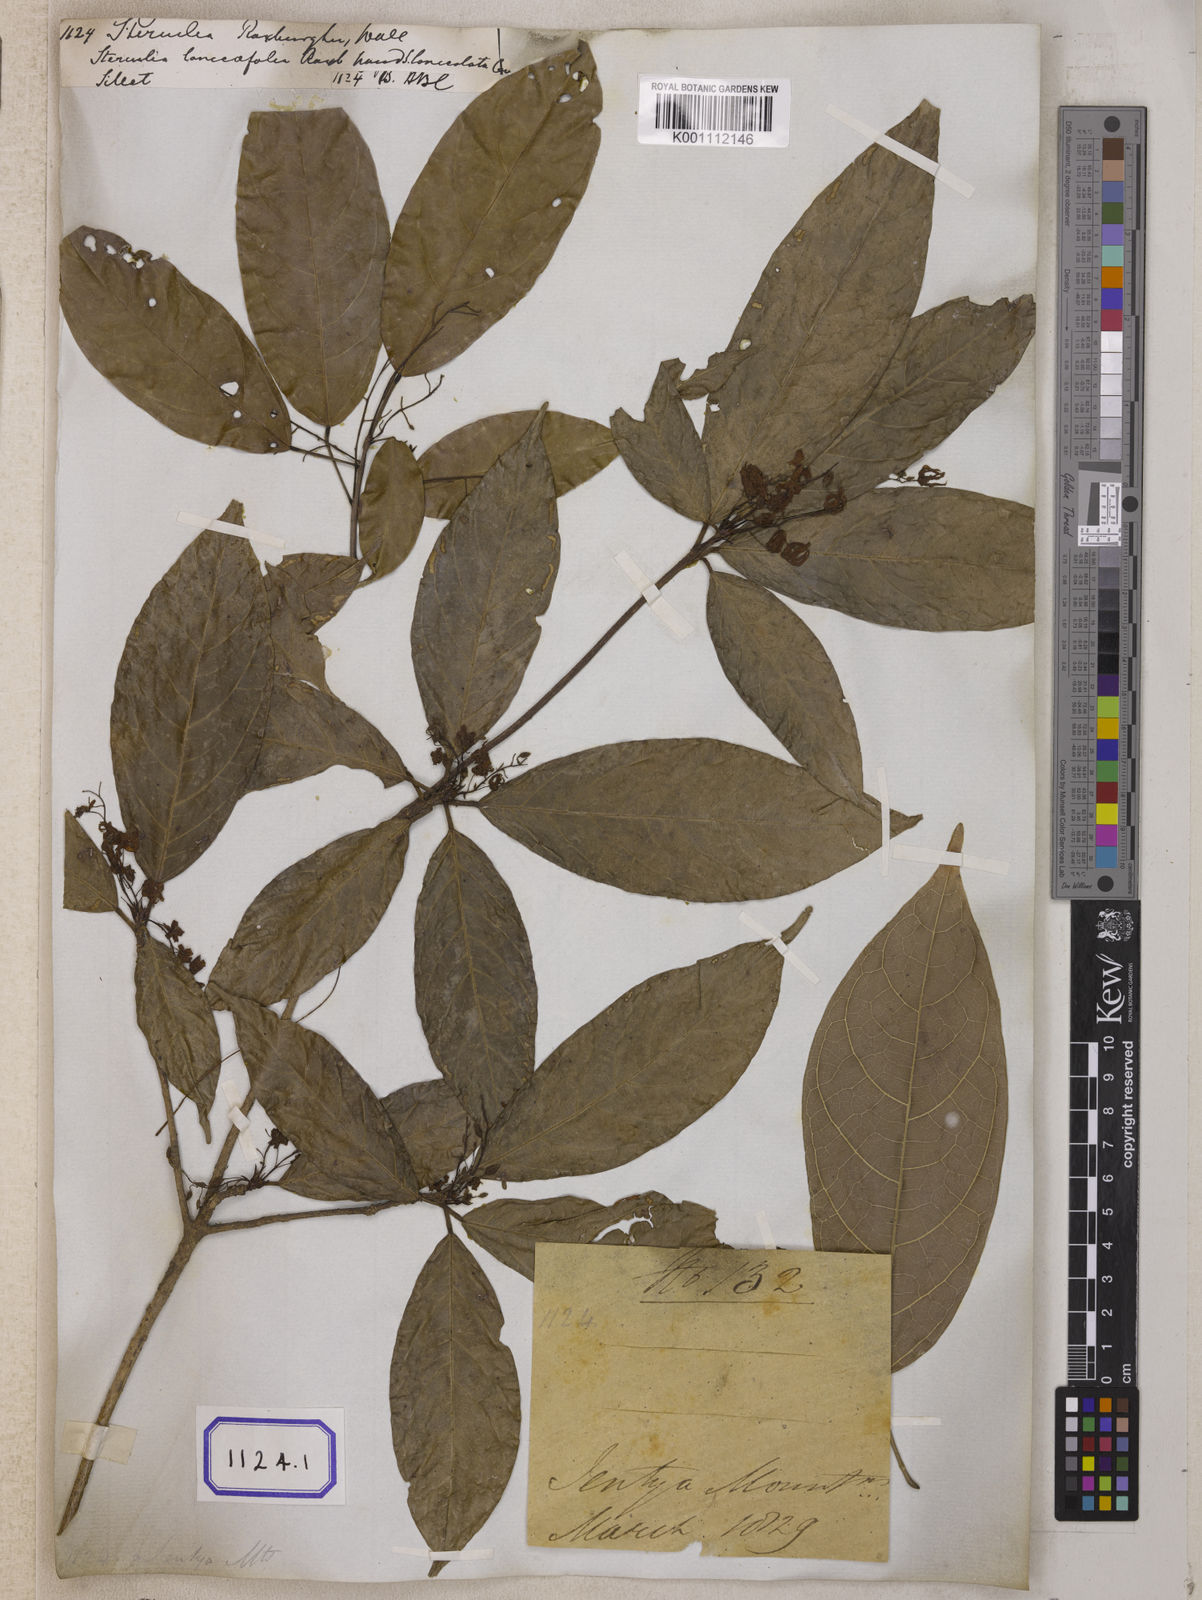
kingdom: Plantae
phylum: Tracheophyta
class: Magnoliopsida
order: Malvales
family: Malvaceae
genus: Sterculia
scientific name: Sterculia lanceifolia
